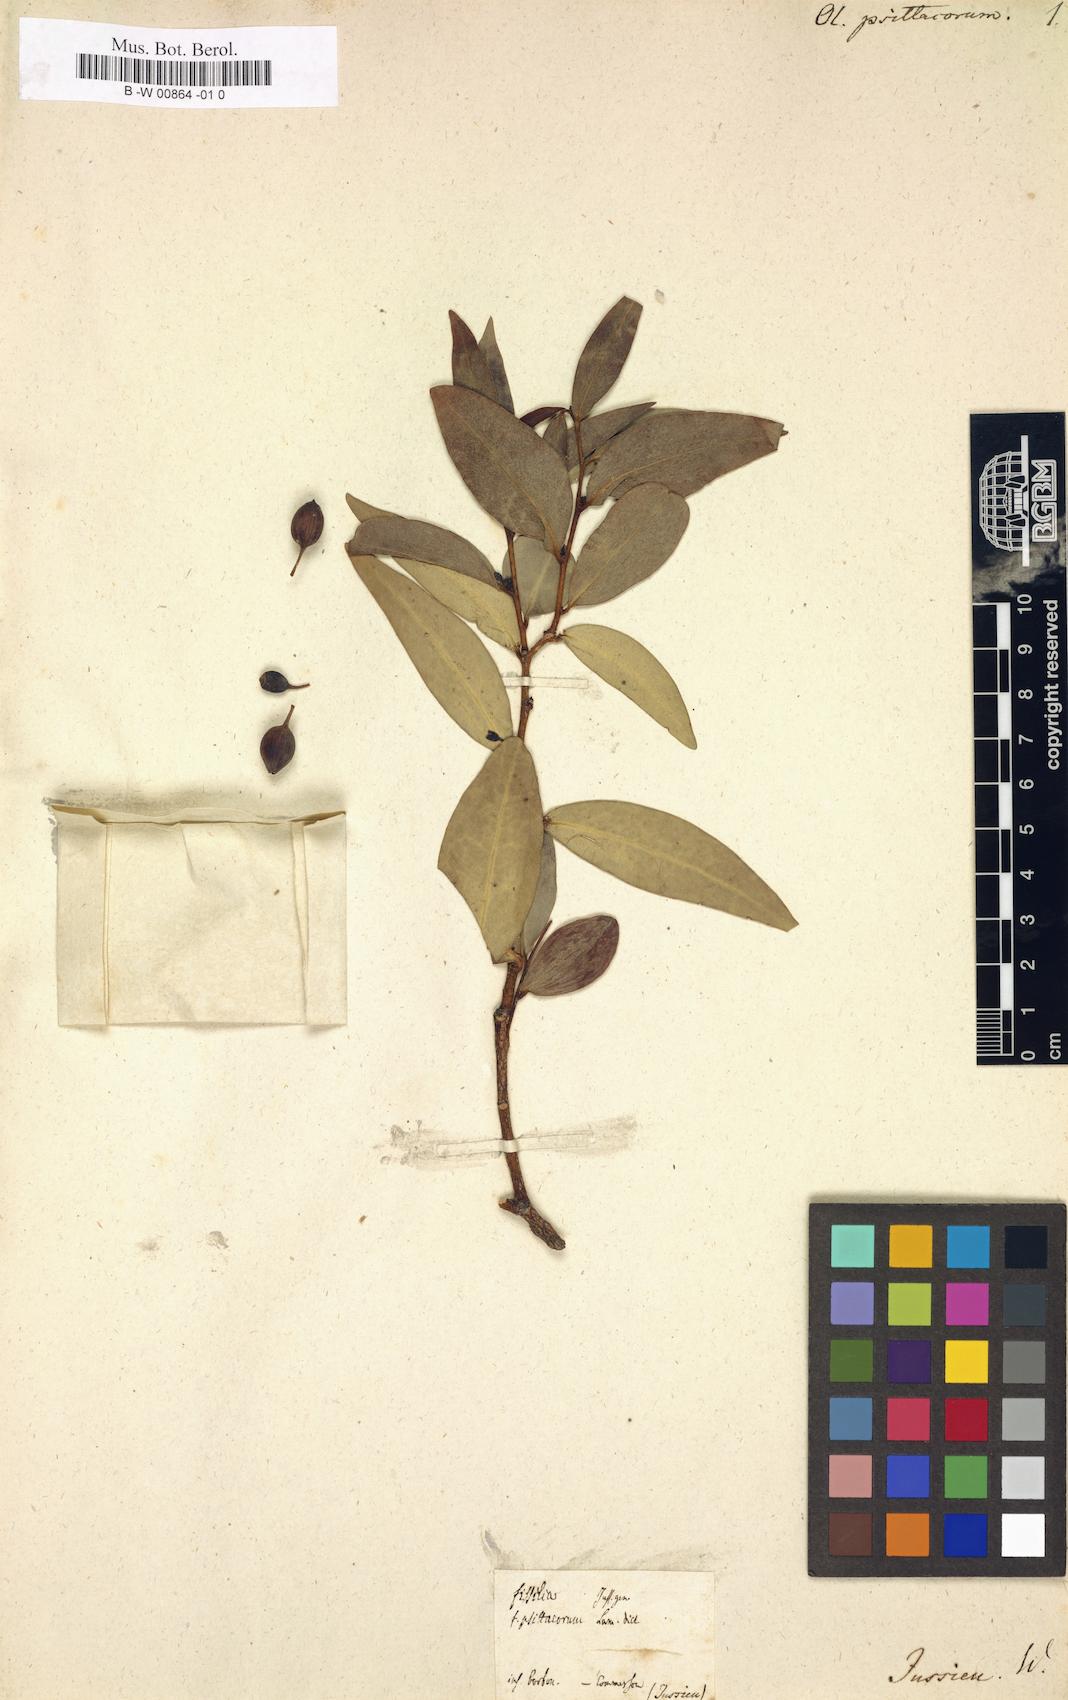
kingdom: Plantae
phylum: Tracheophyta
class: Magnoliopsida
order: Santalales
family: Olacaceae
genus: Olax
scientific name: Olax psittacorum
